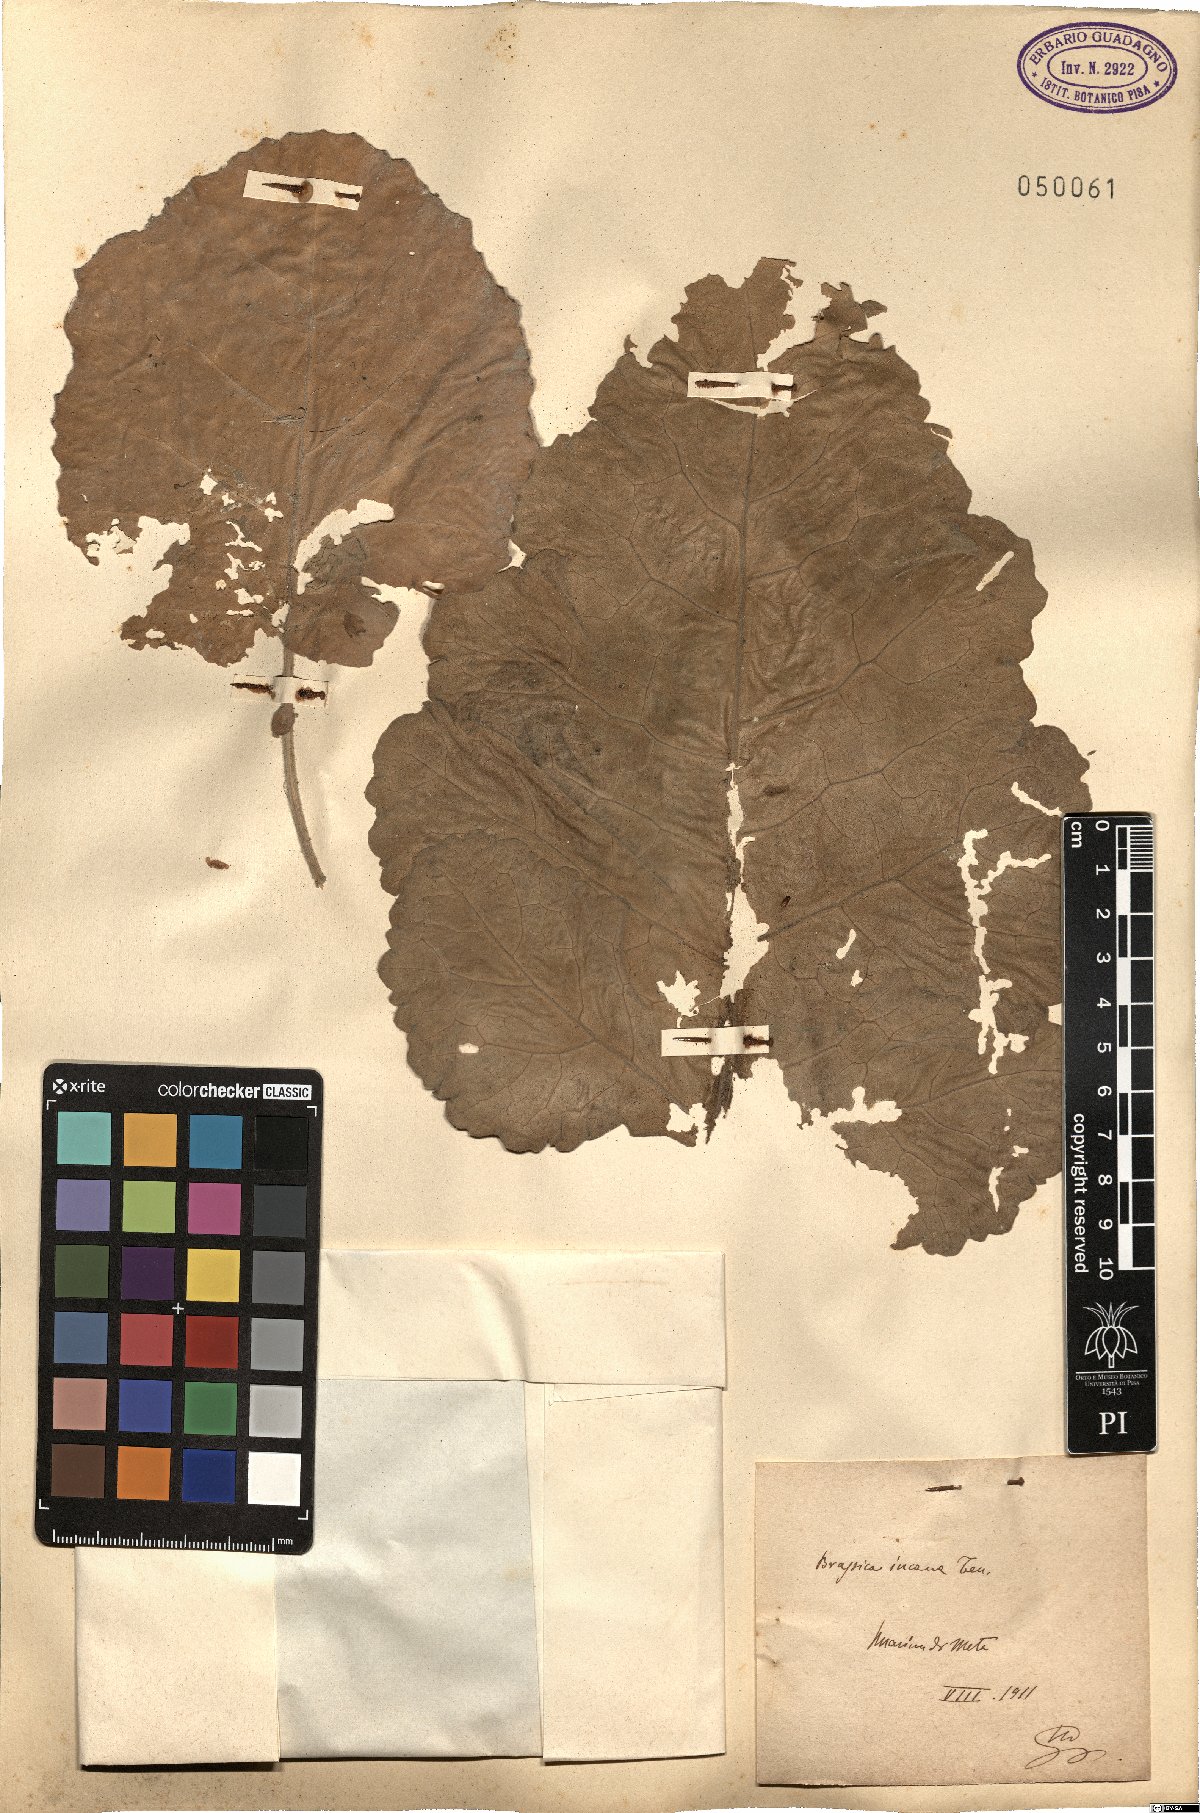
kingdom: Plantae
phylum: Tracheophyta
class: Magnoliopsida
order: Brassicales
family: Brassicaceae
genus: Brassica
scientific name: Brassica incana
